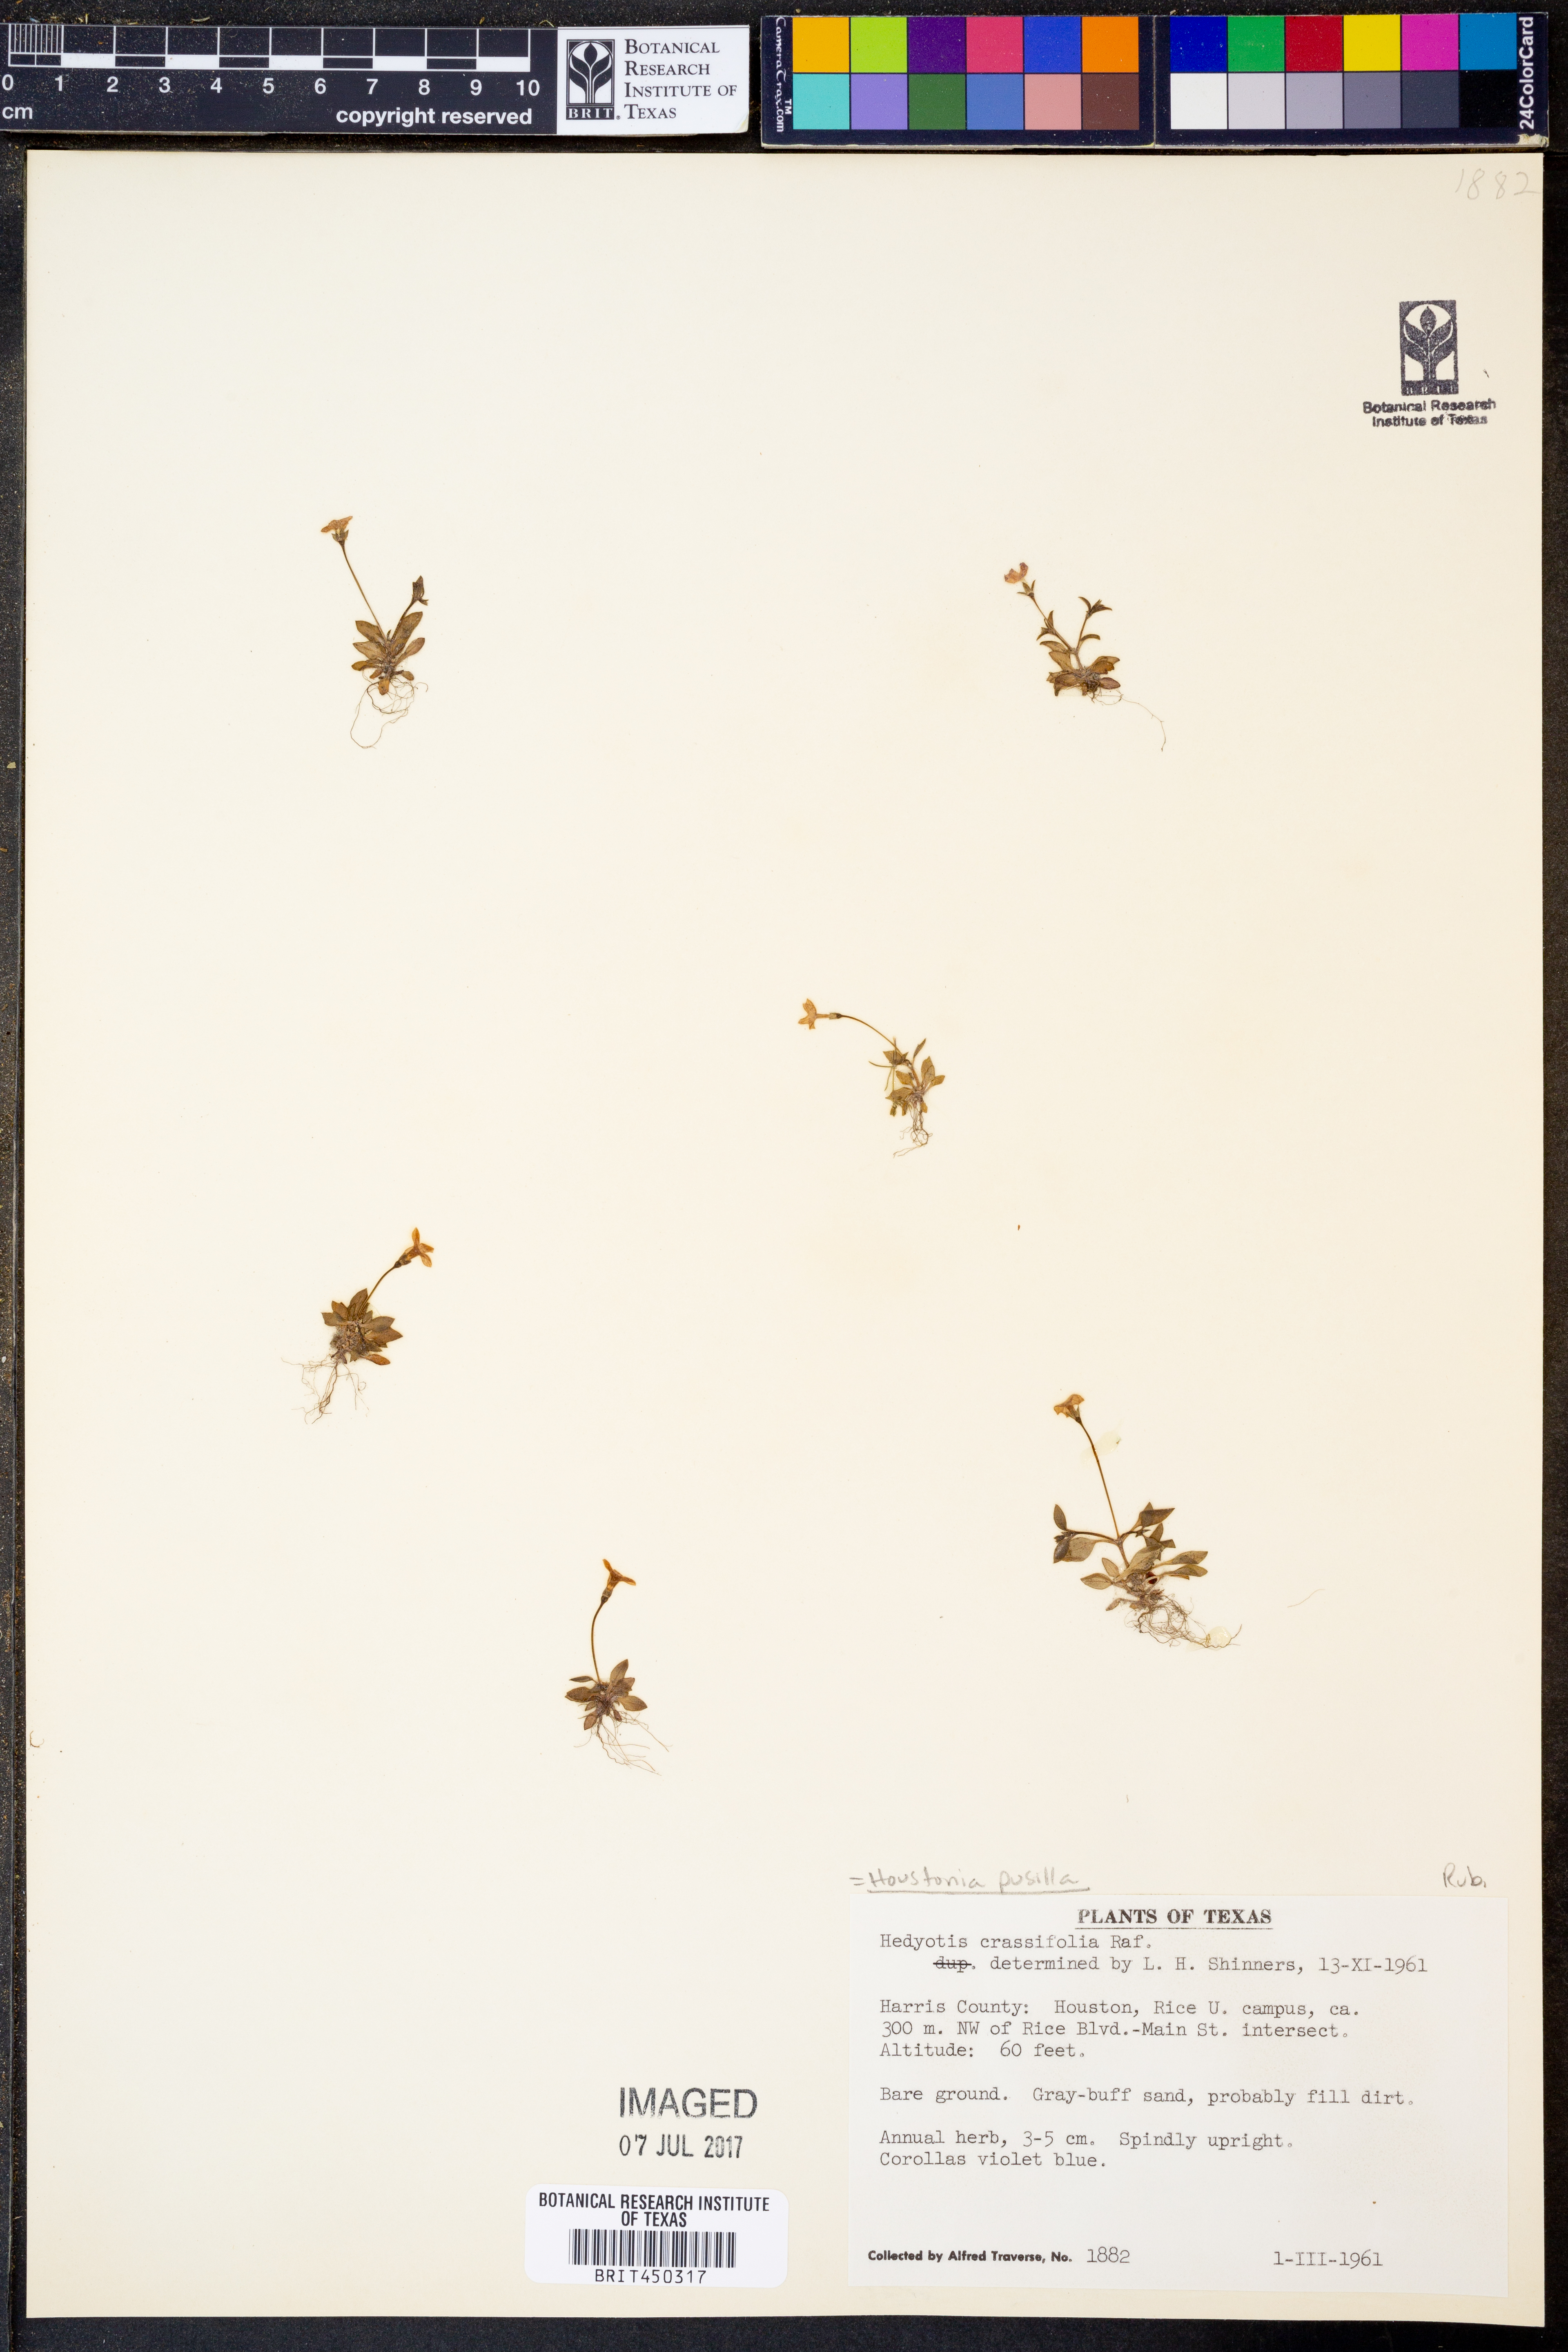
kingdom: Plantae
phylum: Tracheophyta
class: Magnoliopsida
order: Gentianales
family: Rubiaceae
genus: Houstonia
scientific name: Houstonia pusilla
